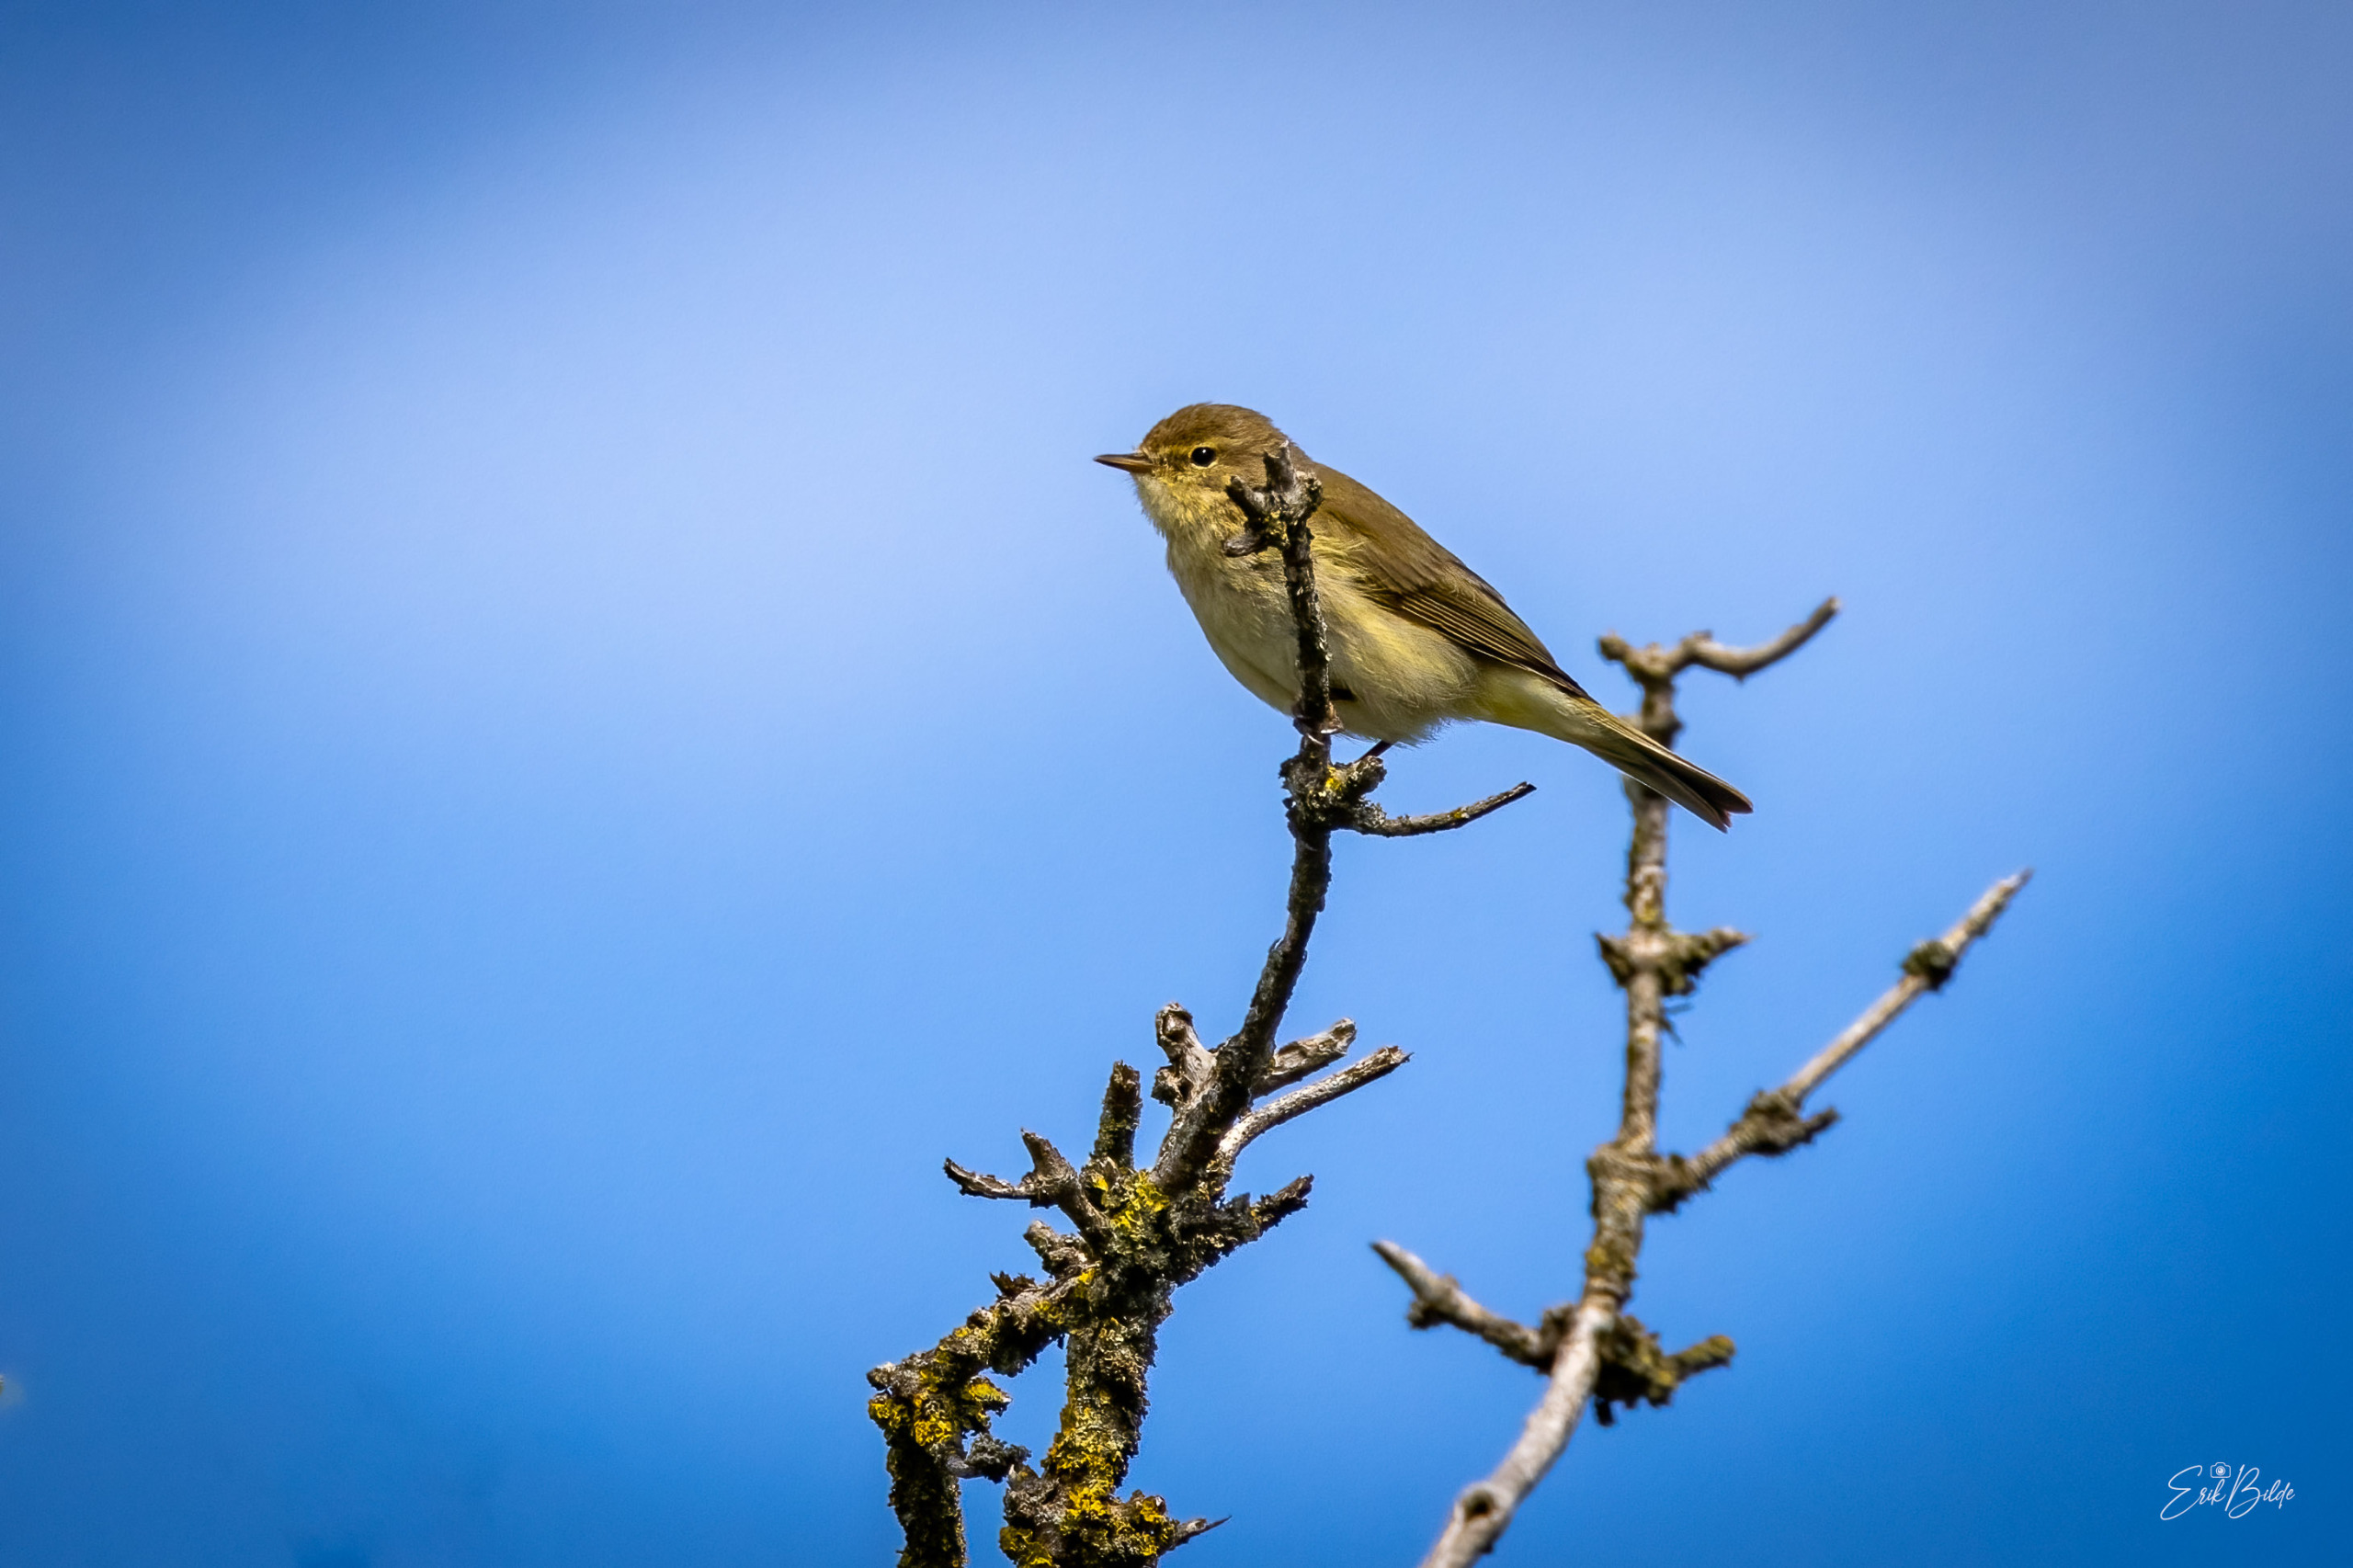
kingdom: Animalia
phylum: Chordata
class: Aves
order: Passeriformes
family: Phylloscopidae
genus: Phylloscopus
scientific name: Phylloscopus collybita
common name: Gransanger
